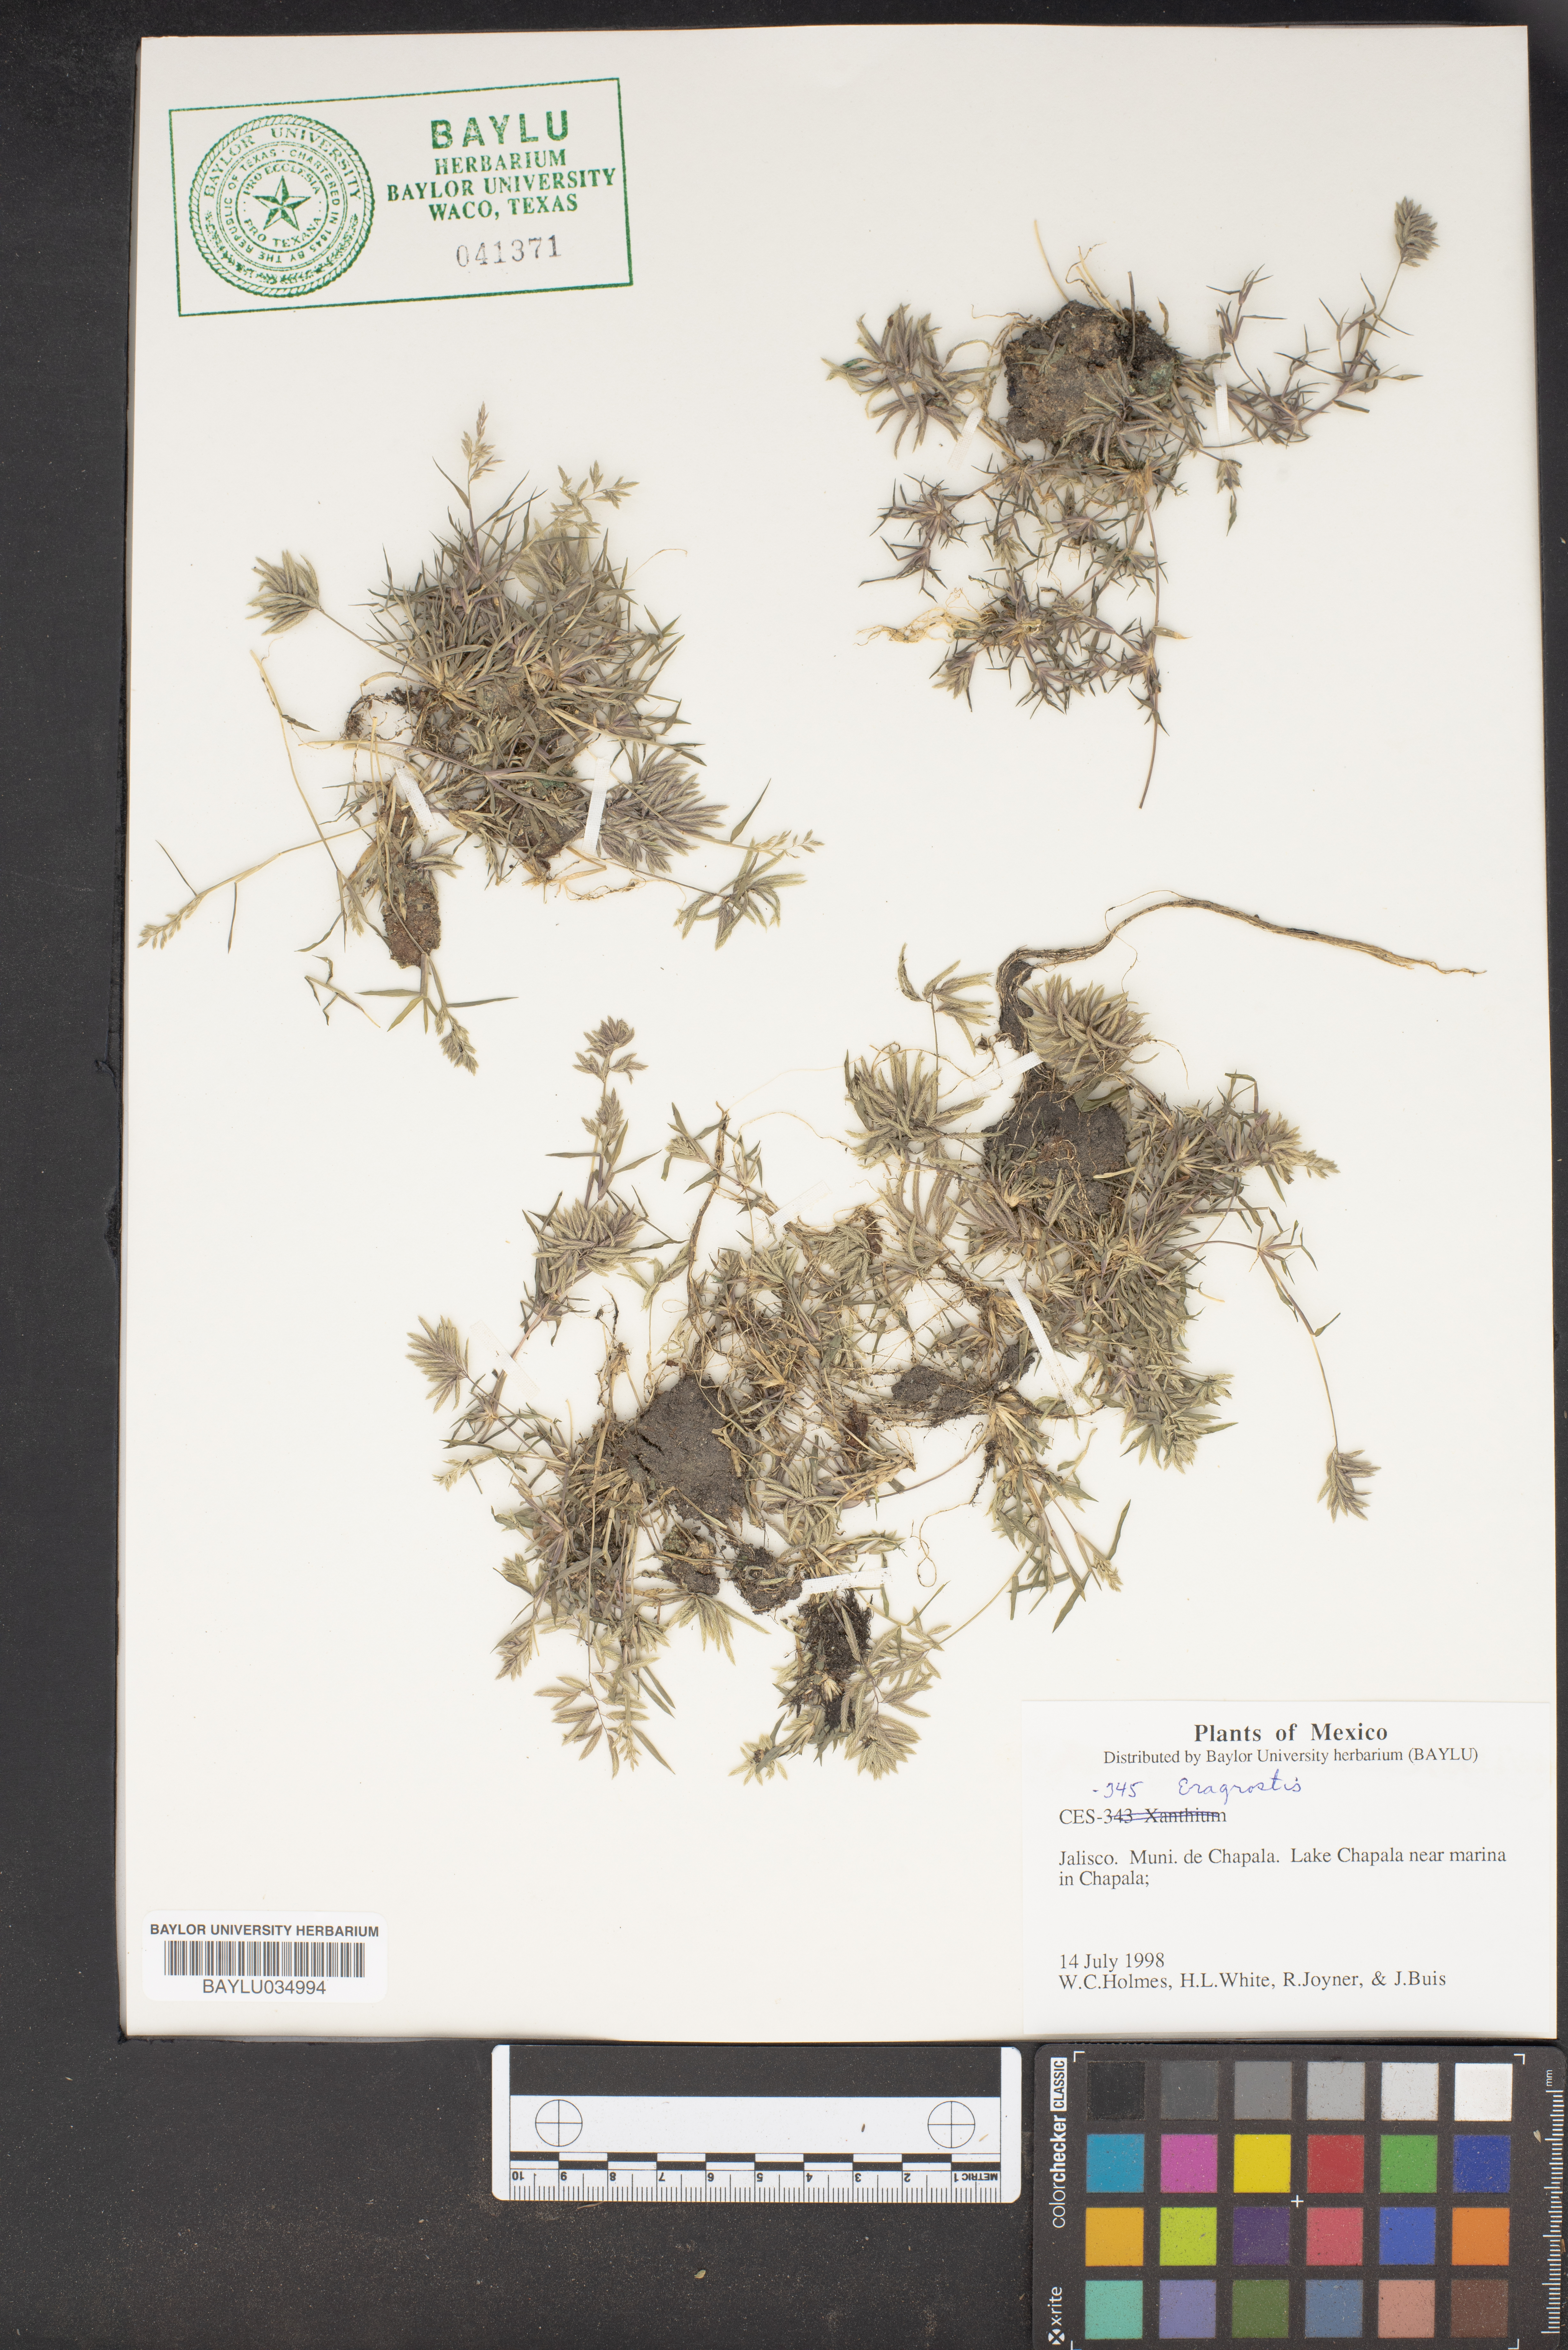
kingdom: Plantae
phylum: Tracheophyta
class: Liliopsida
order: Poales
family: Poaceae
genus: Eragrostis
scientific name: Eragrostis
